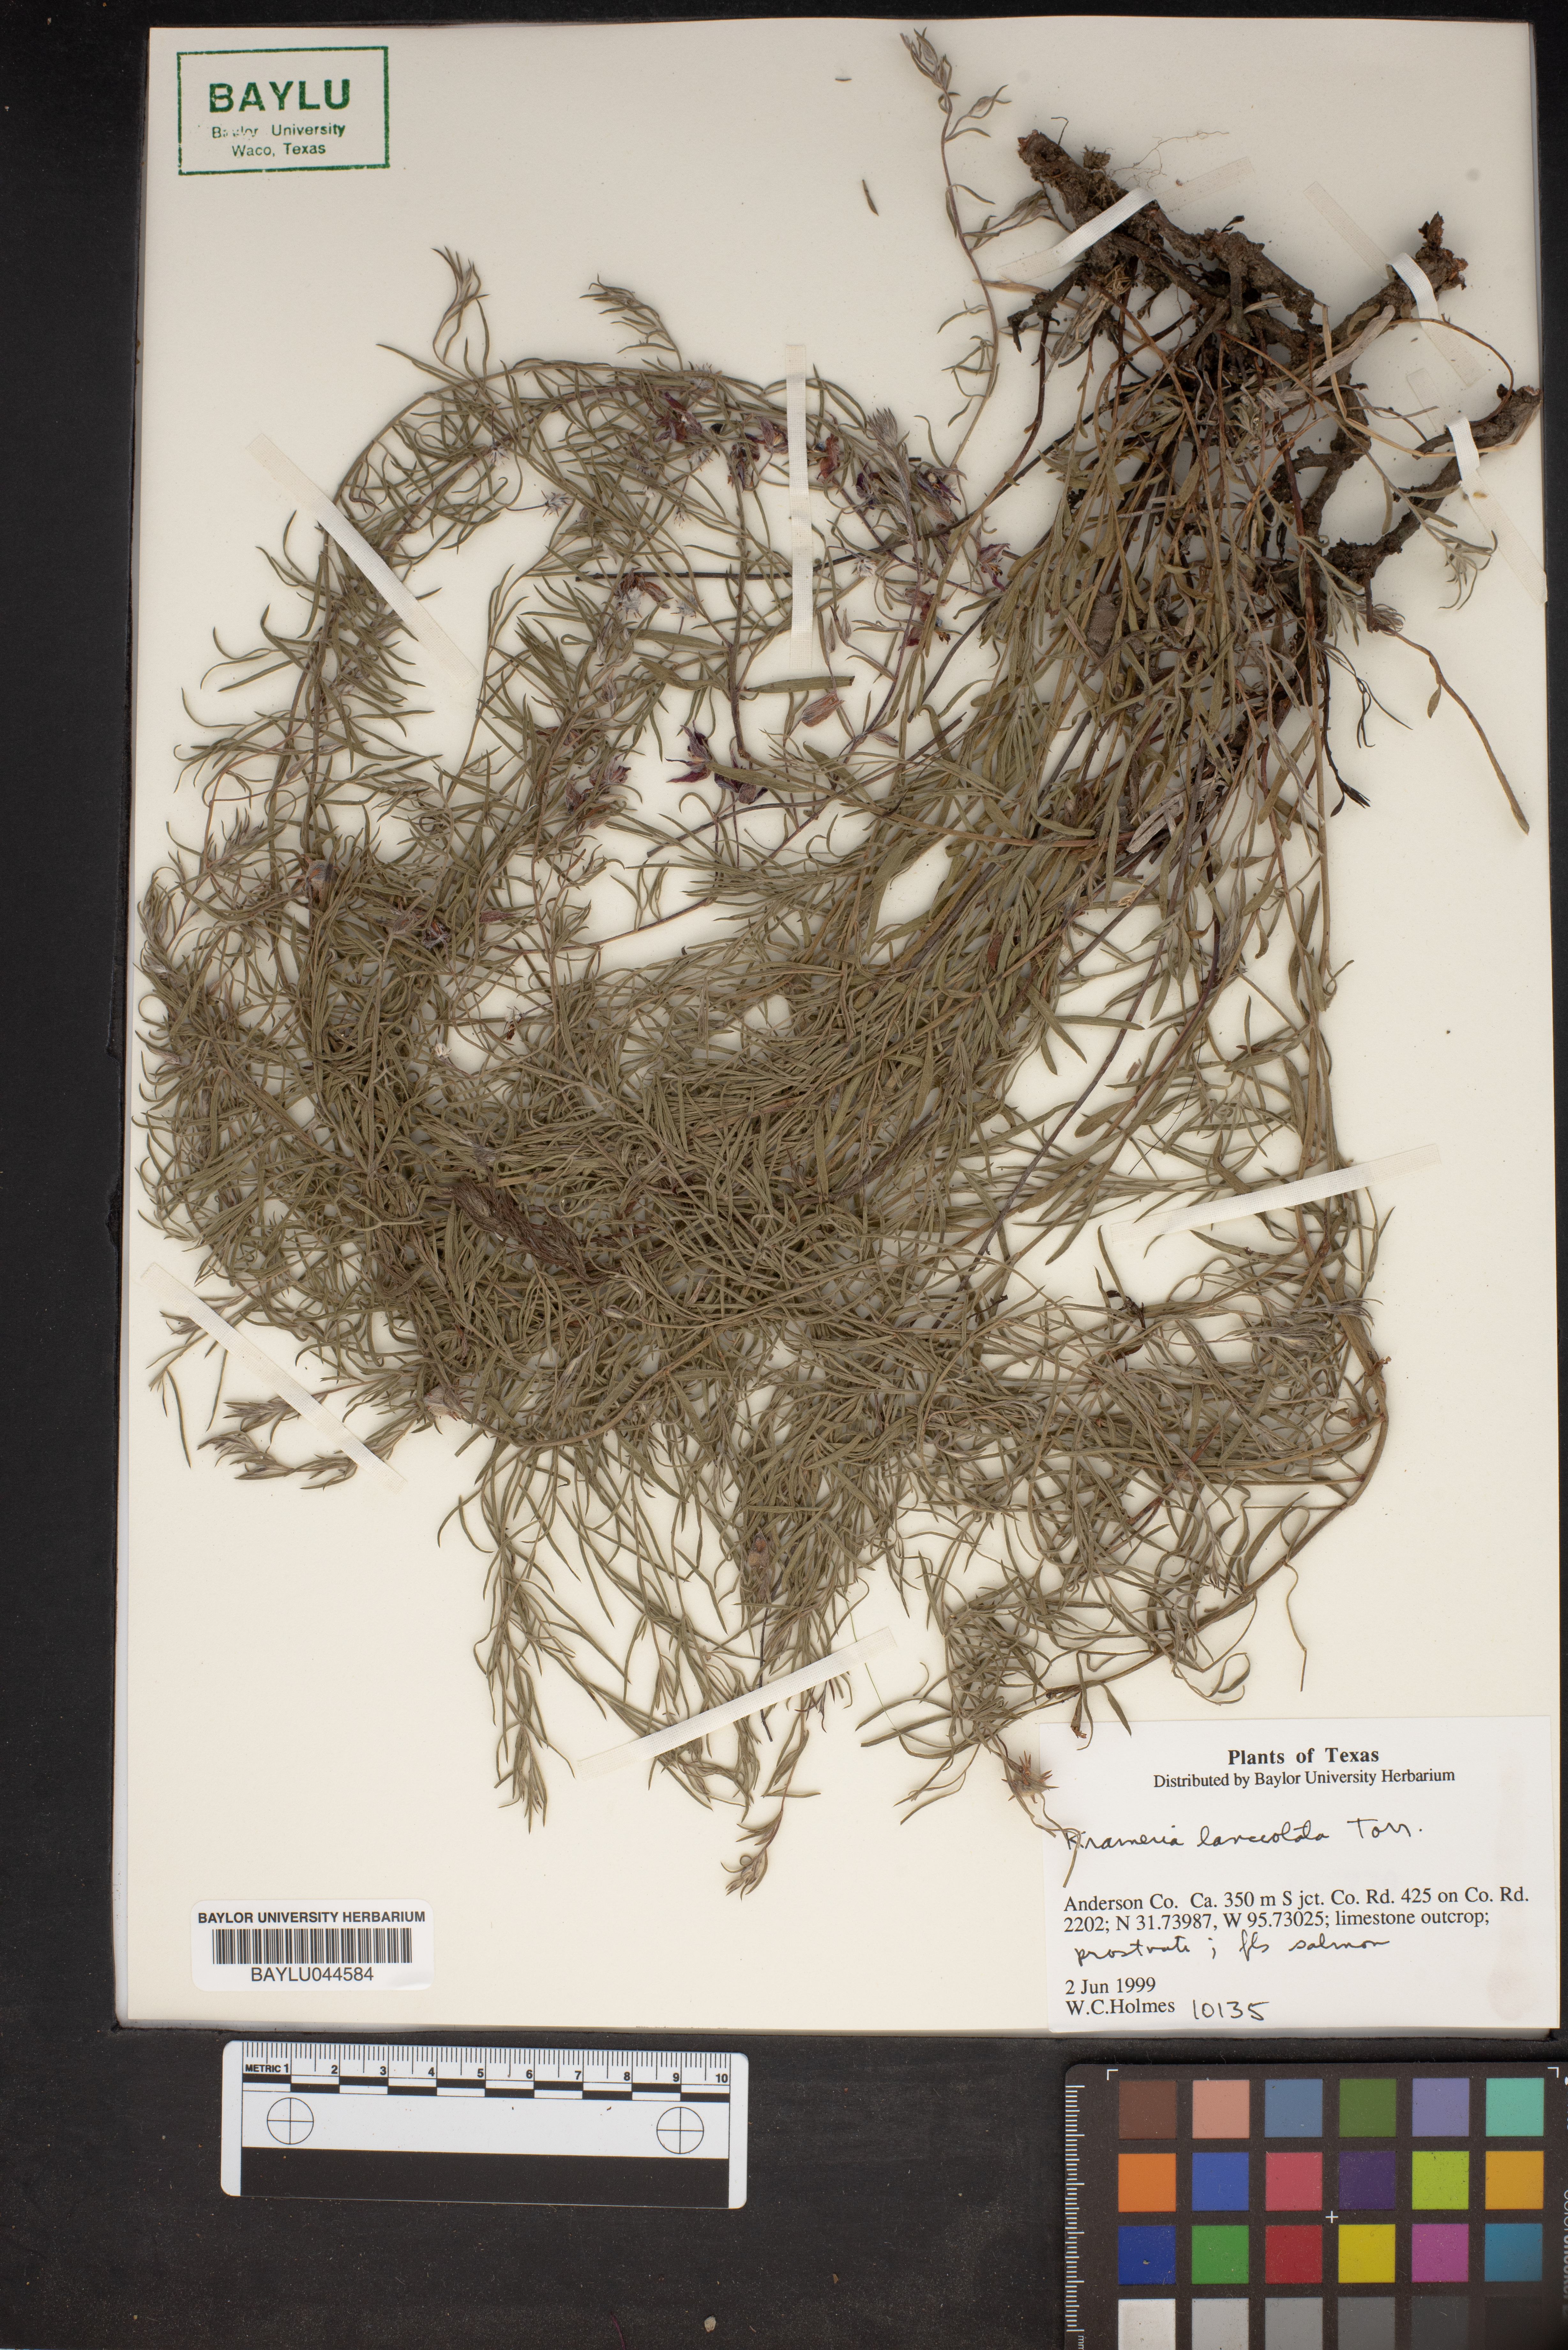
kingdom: Plantae
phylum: Tracheophyta
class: Magnoliopsida
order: Zygophyllales
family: Krameriaceae
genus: Krameria
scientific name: Krameria lanceolata
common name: Ratany
